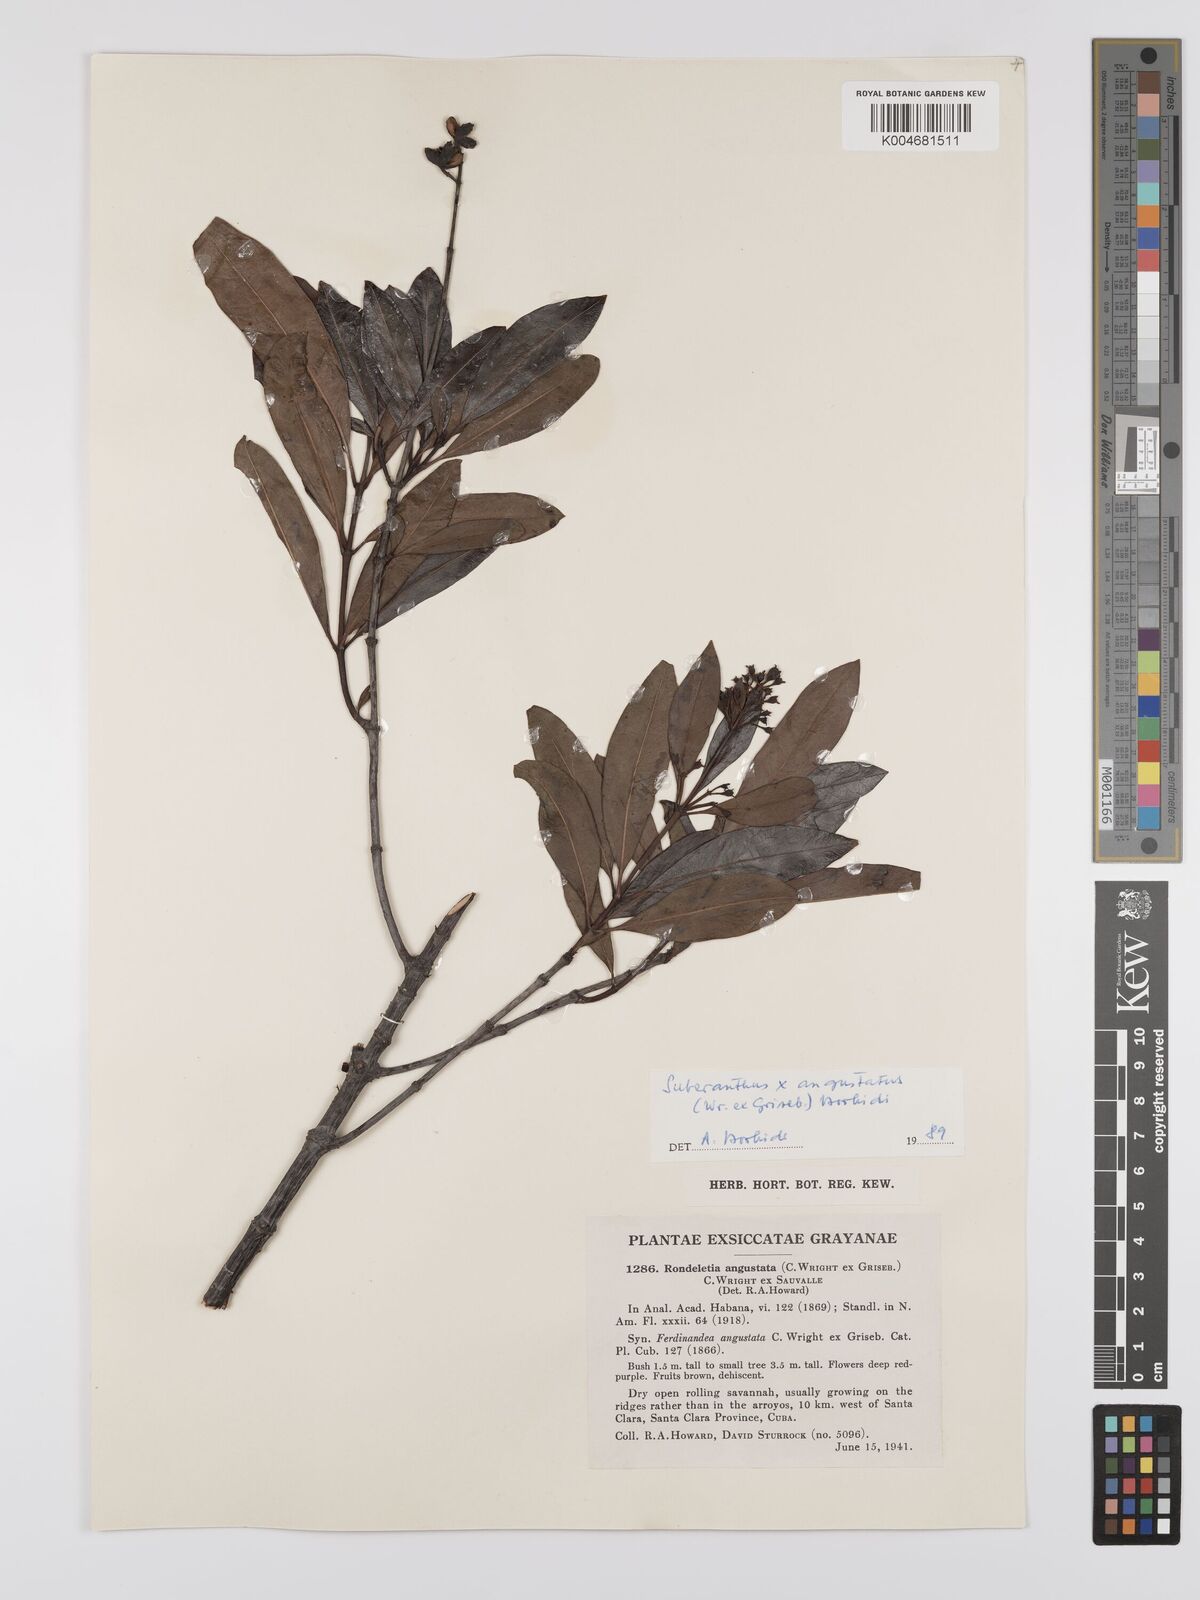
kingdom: Plantae
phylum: Tracheophyta
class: Magnoliopsida
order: Gentianales
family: Rubiaceae
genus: Suberanthus
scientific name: Suberanthus angustatus
